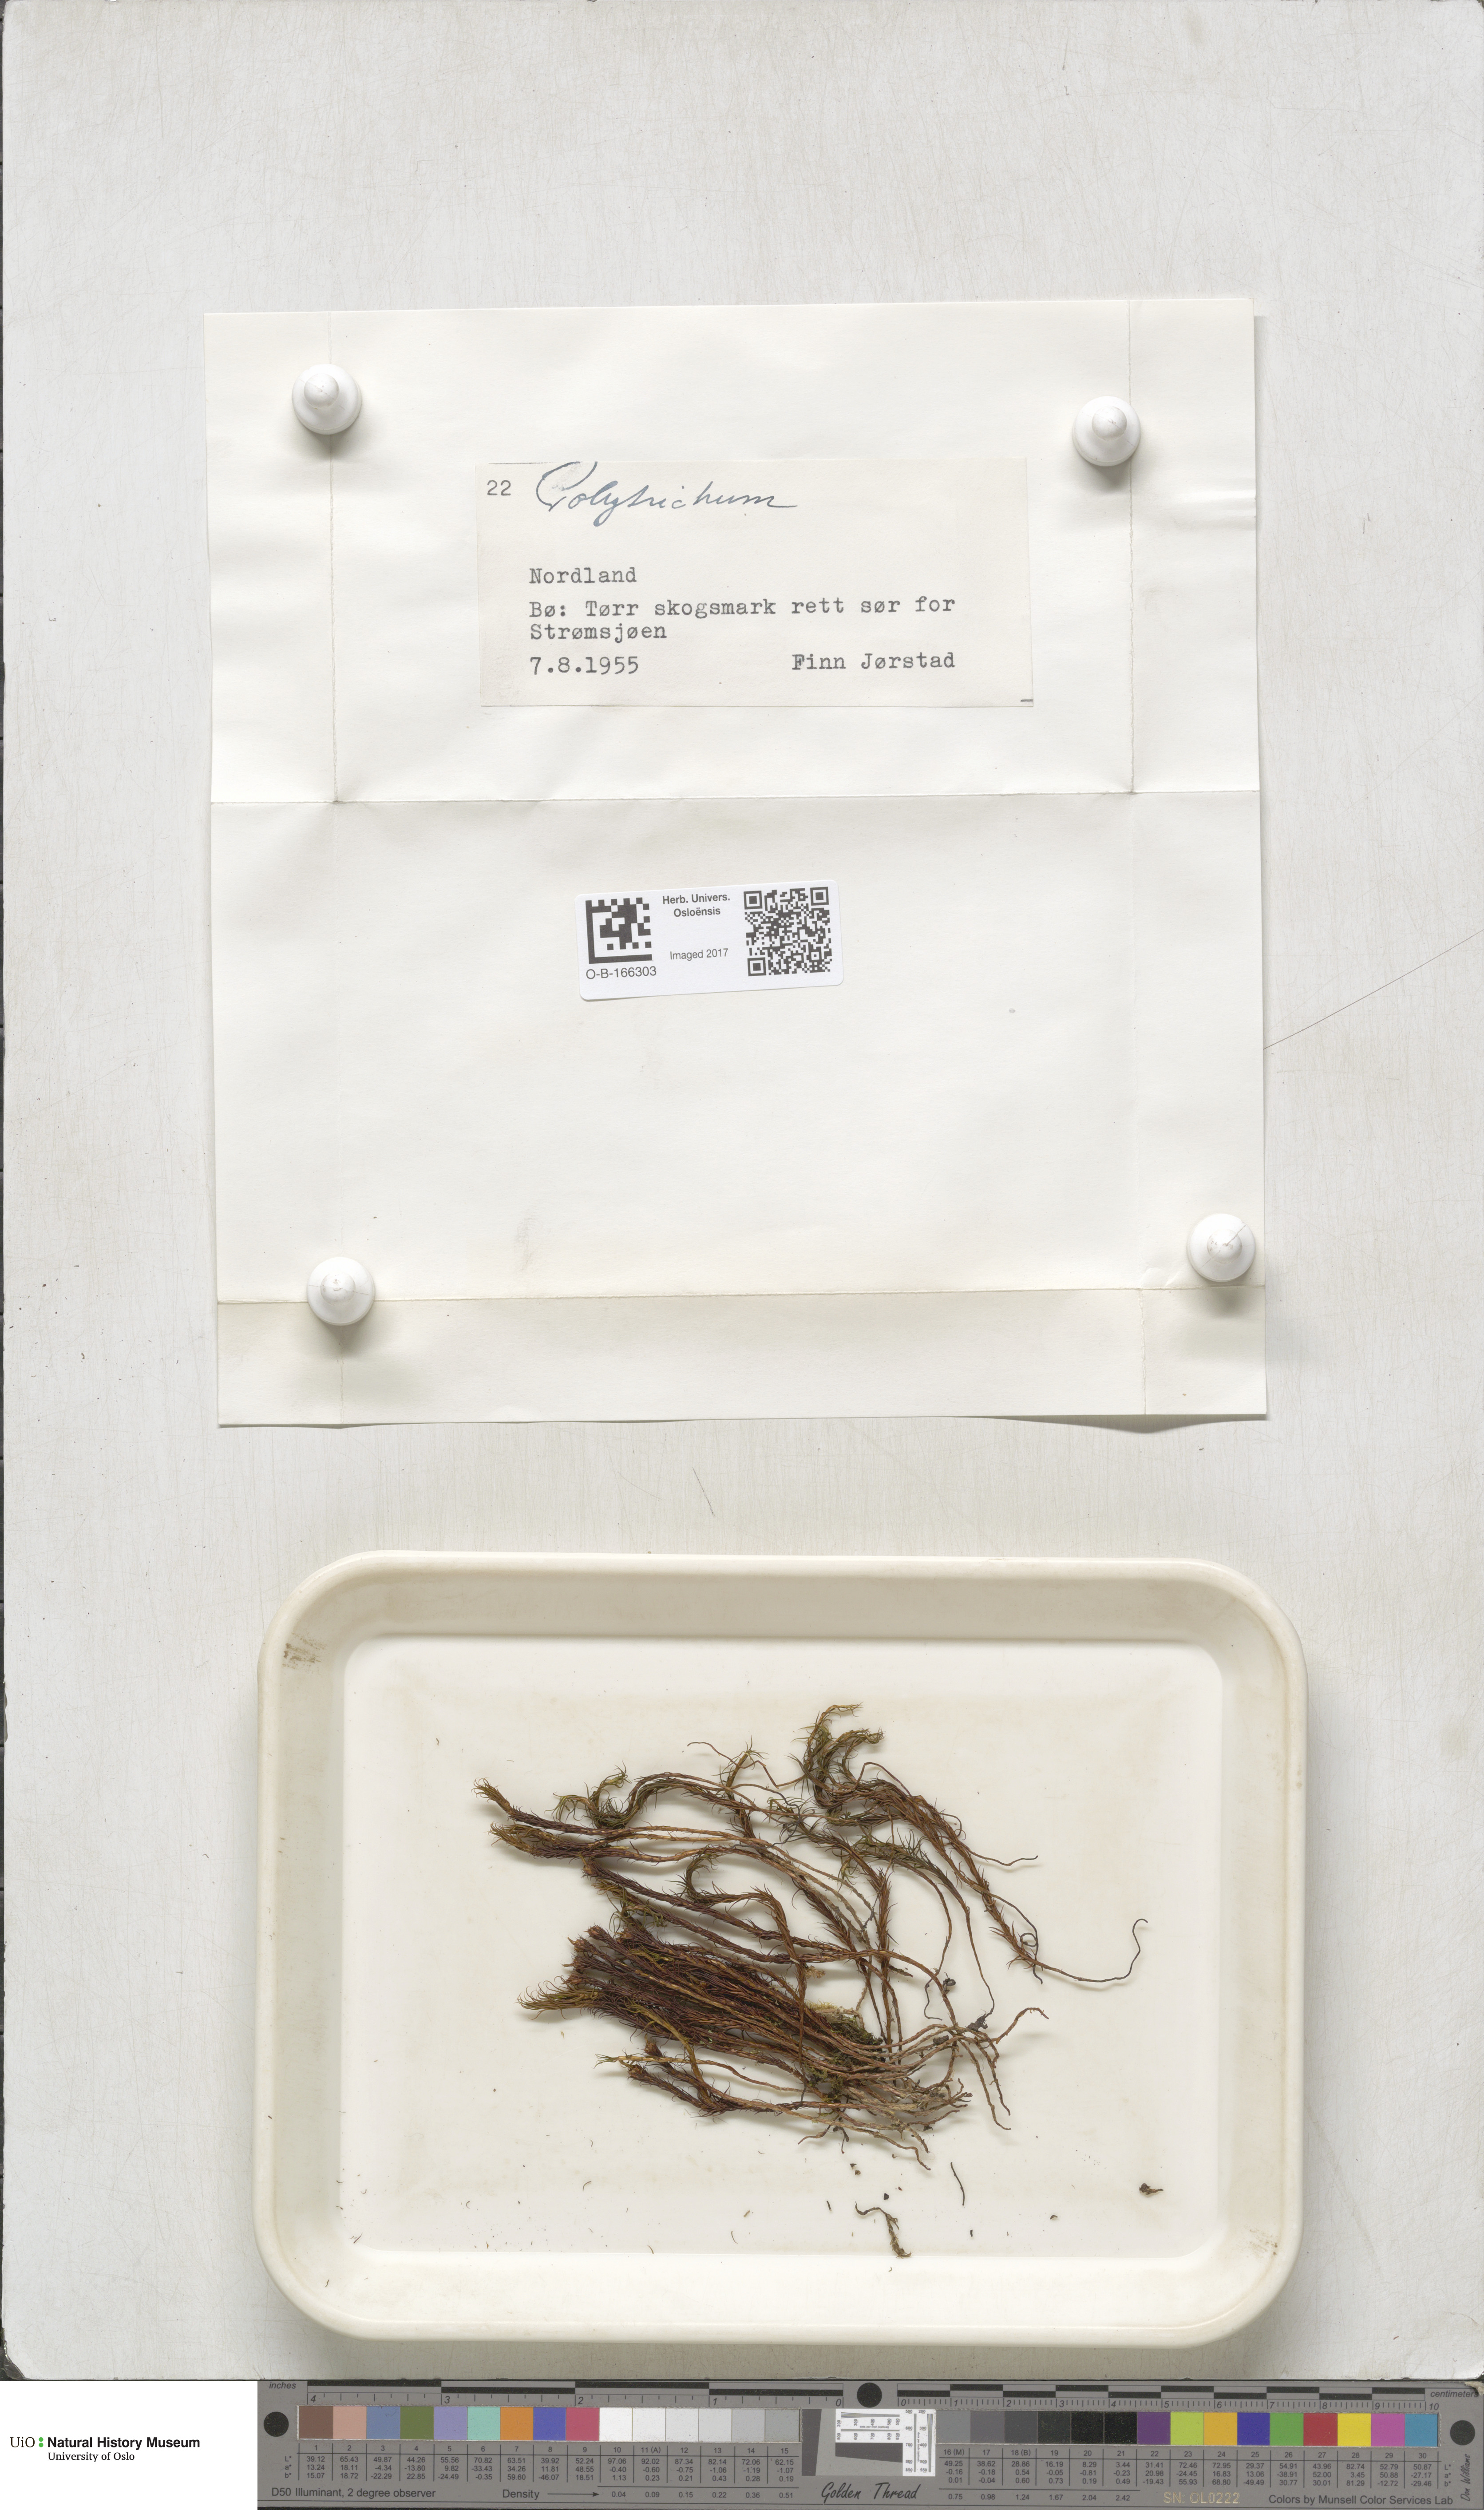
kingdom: Plantae
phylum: Bryophyta
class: Polytrichopsida
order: Polytrichales
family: Polytrichaceae
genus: Polytrichum
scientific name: Polytrichum
